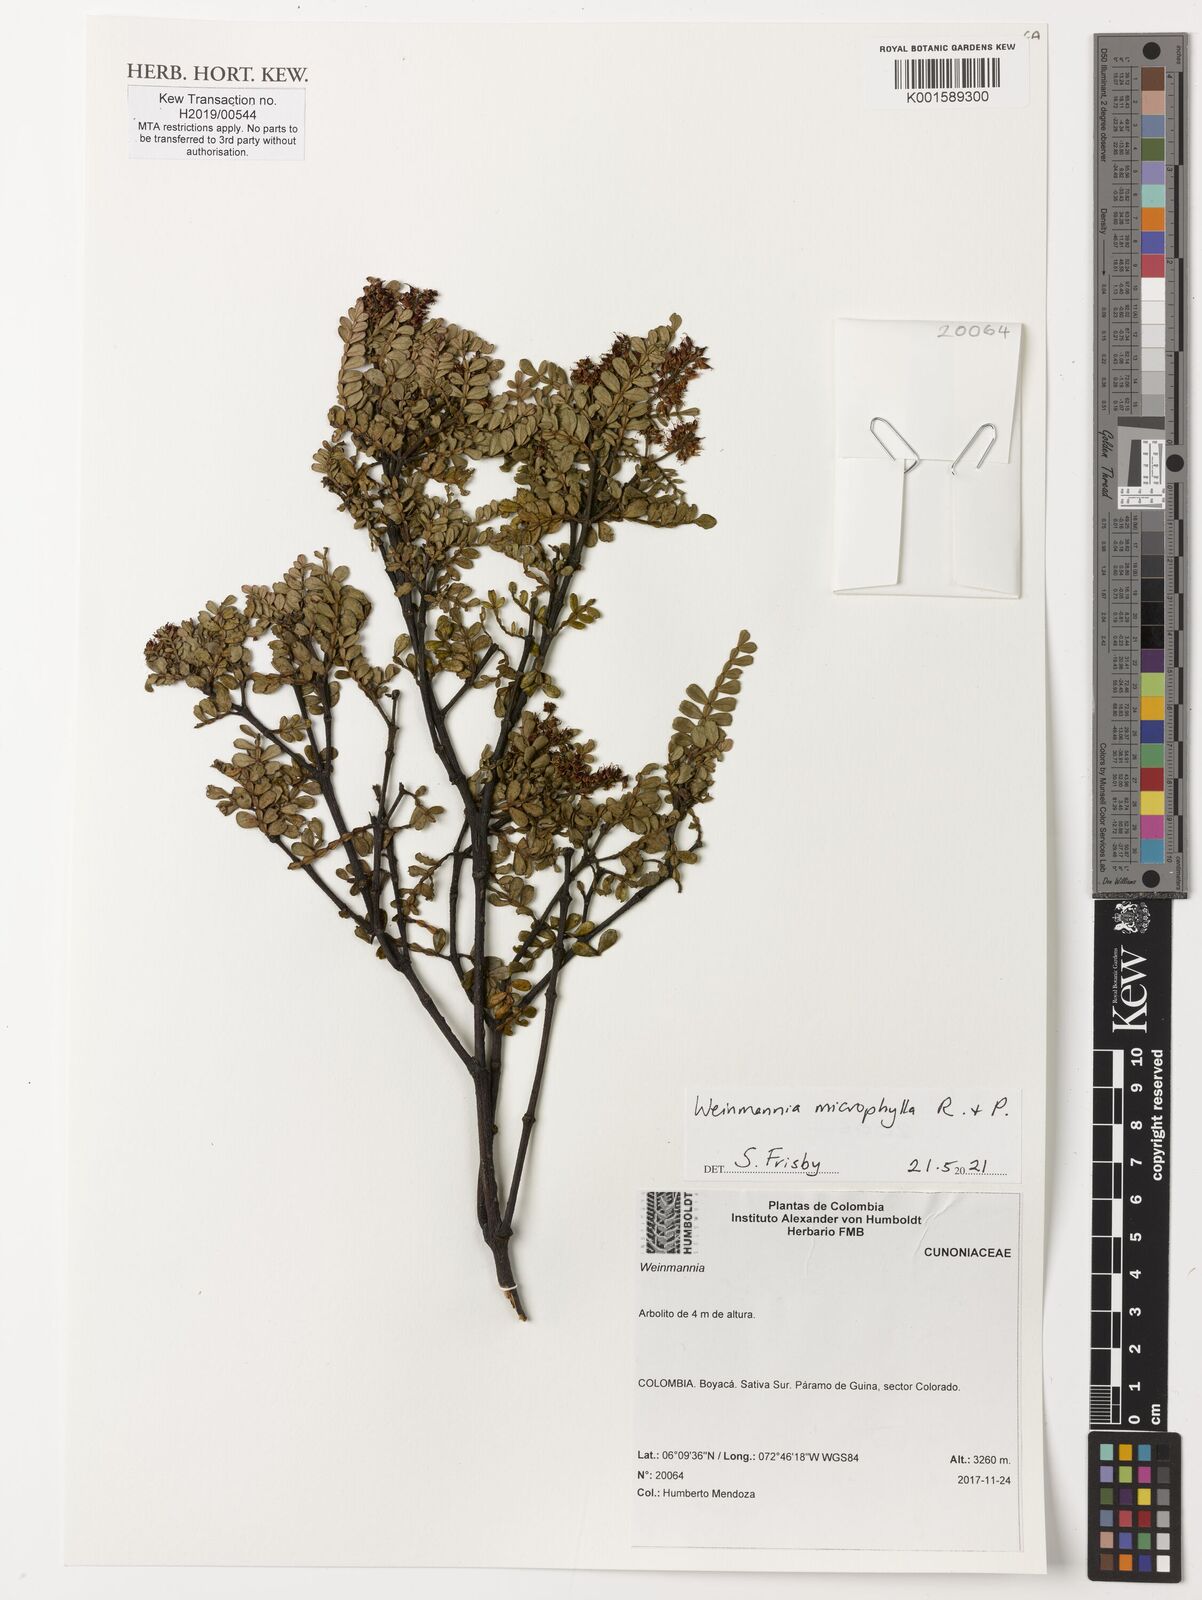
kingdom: Plantae
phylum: Tracheophyta
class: Magnoliopsida
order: Oxalidales
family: Cunoniaceae
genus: Weinmannia
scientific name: Weinmannia microphylla
